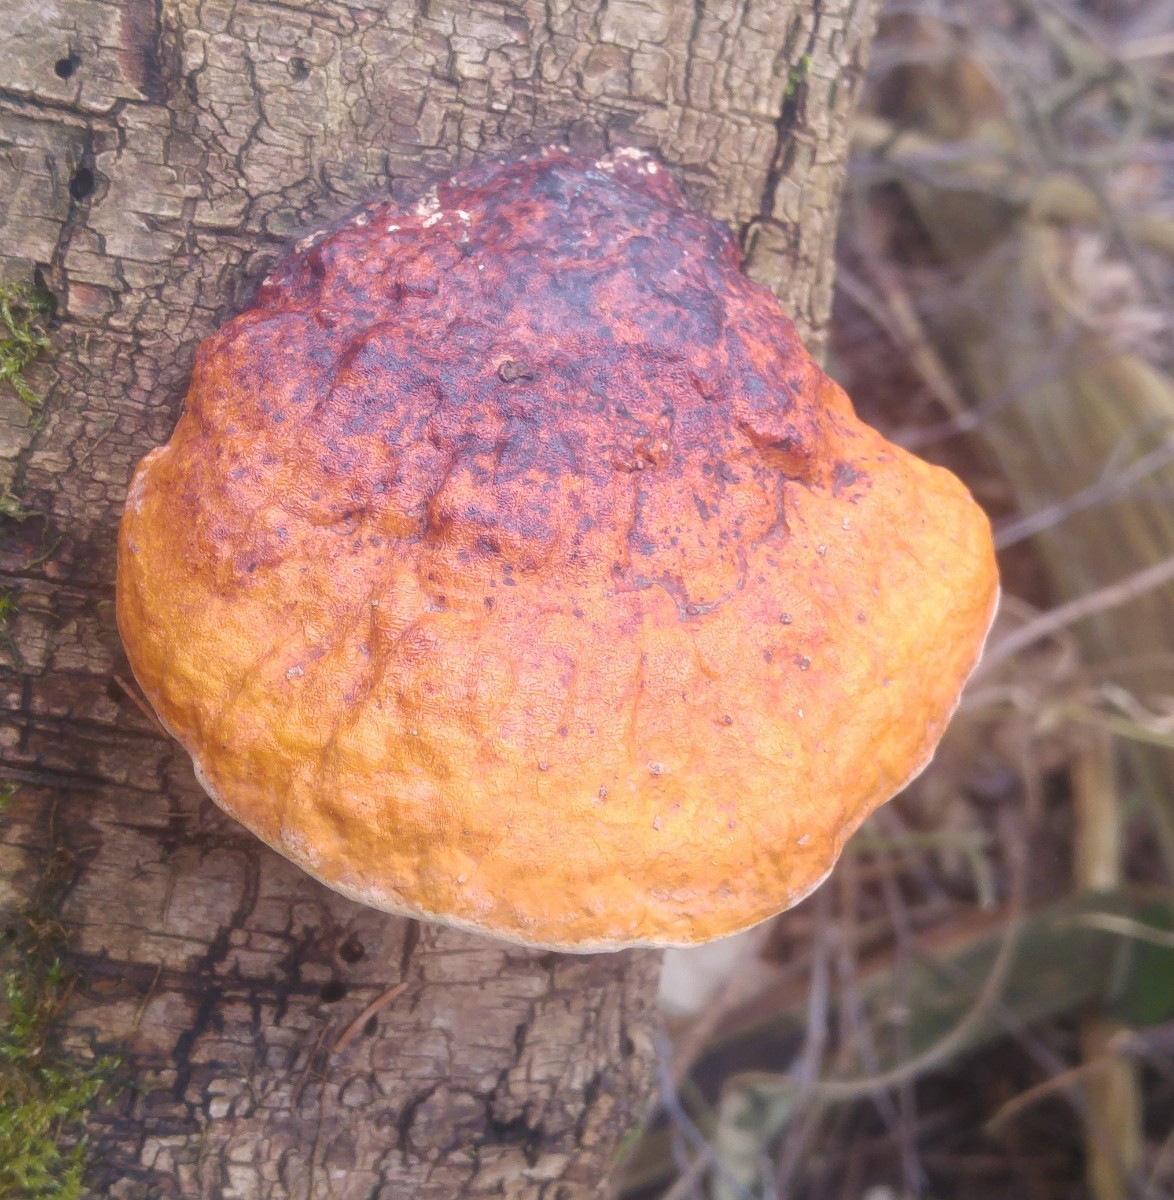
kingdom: Fungi
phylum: Basidiomycota
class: Agaricomycetes
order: Polyporales
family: Fomitopsidaceae
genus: Fomitopsis
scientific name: Fomitopsis pinicola
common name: randbæltet hovporesvamp
